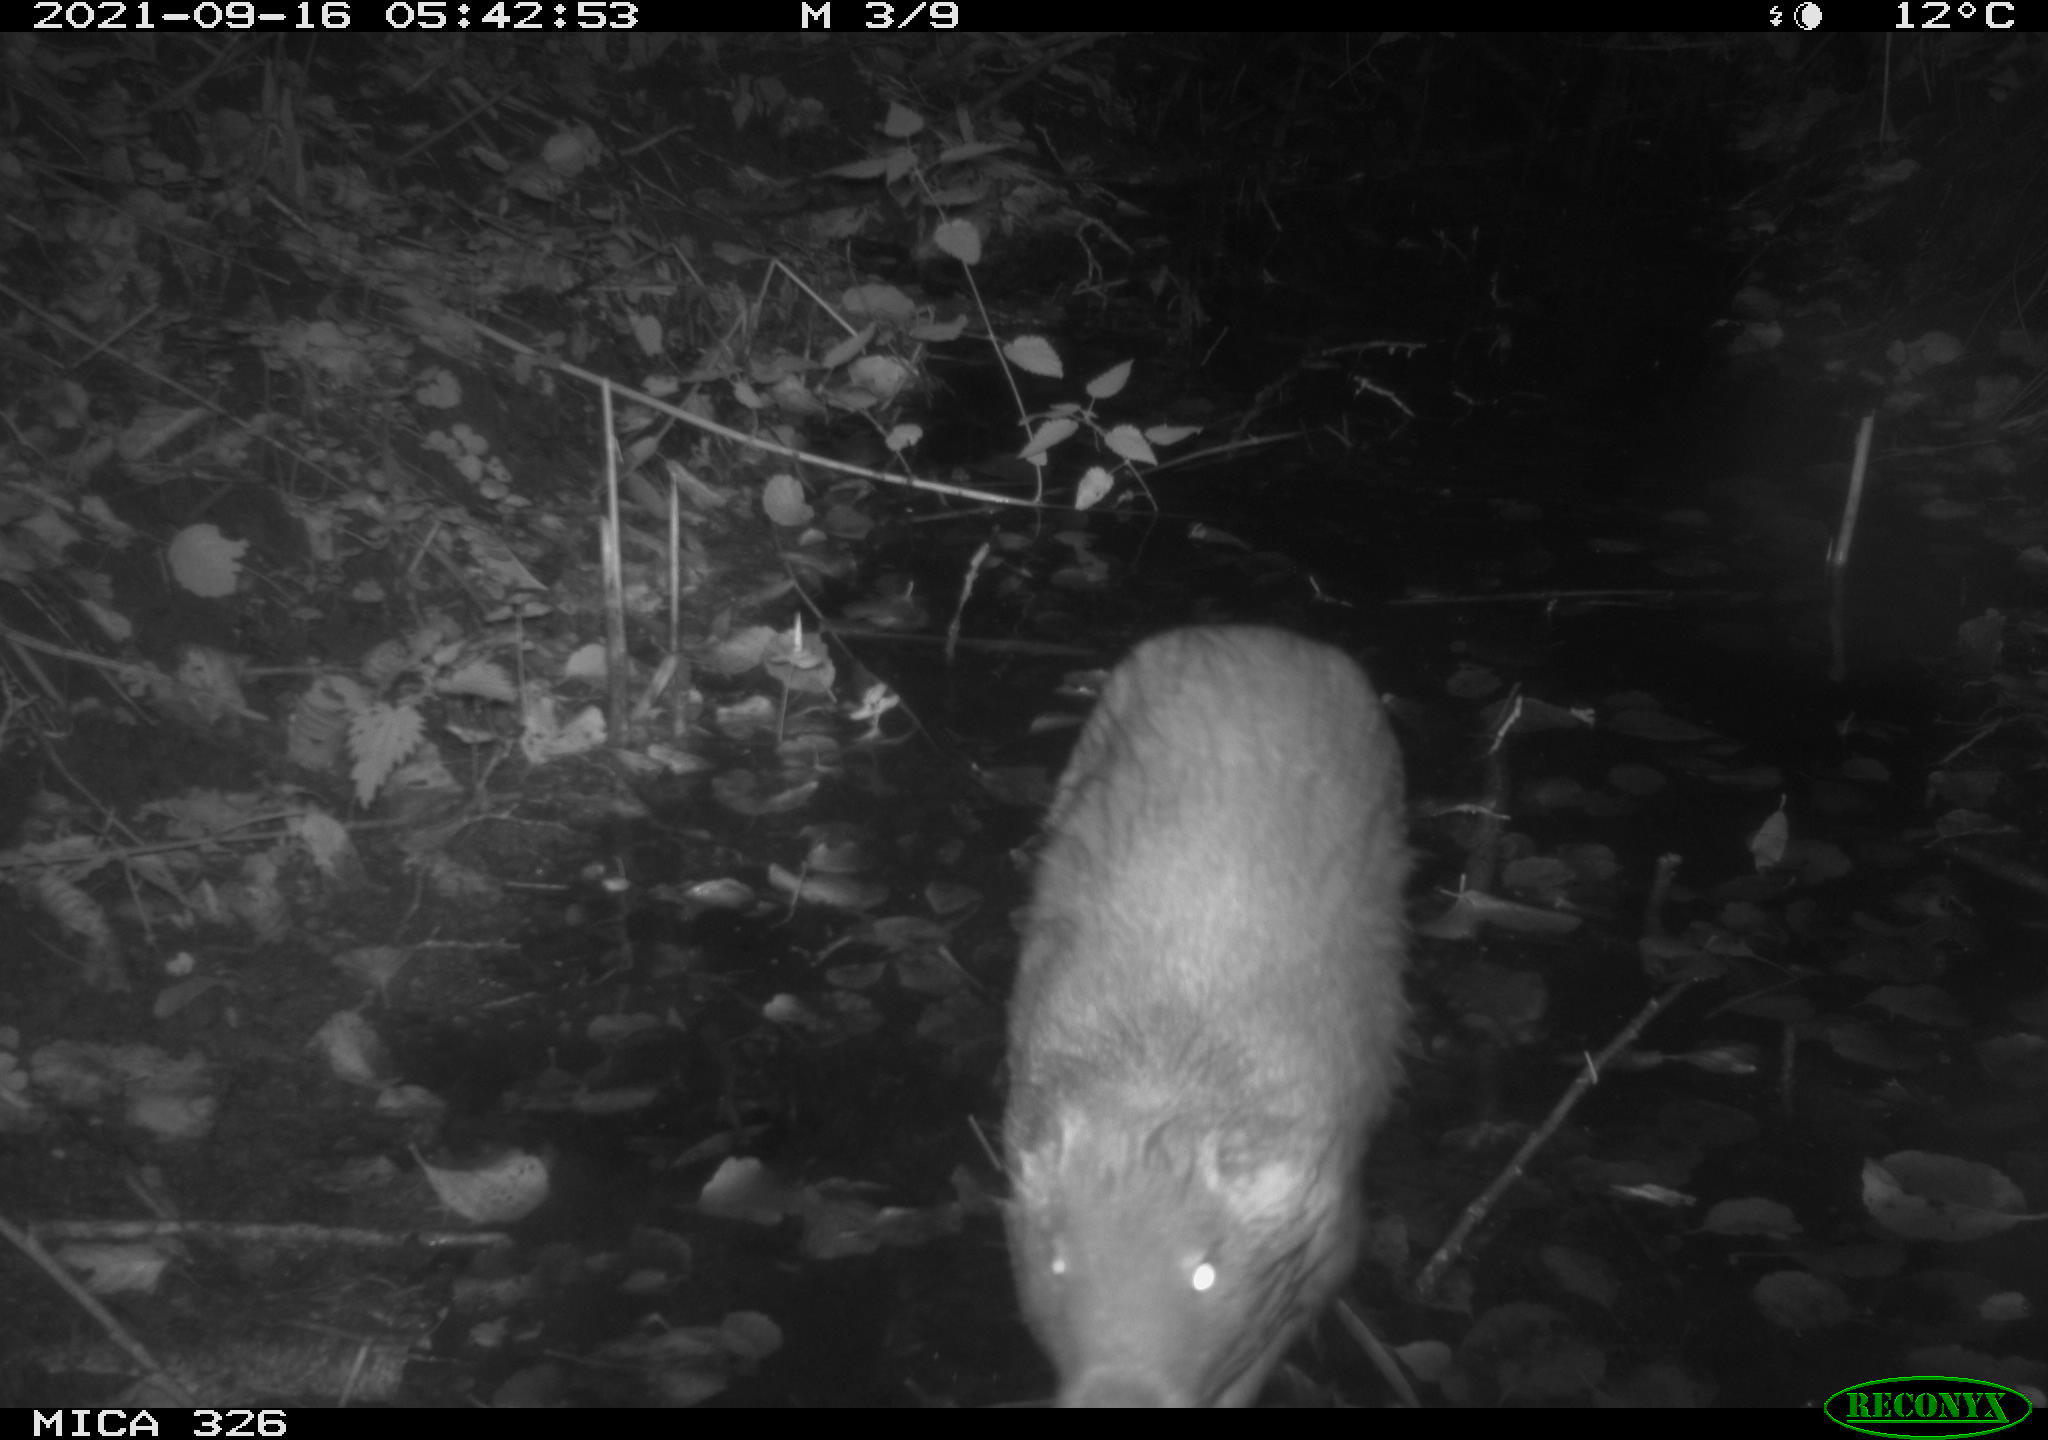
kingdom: Animalia
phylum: Chordata
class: Mammalia
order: Rodentia
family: Myocastoridae
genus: Myocastor
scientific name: Myocastor coypus
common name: Coypu
